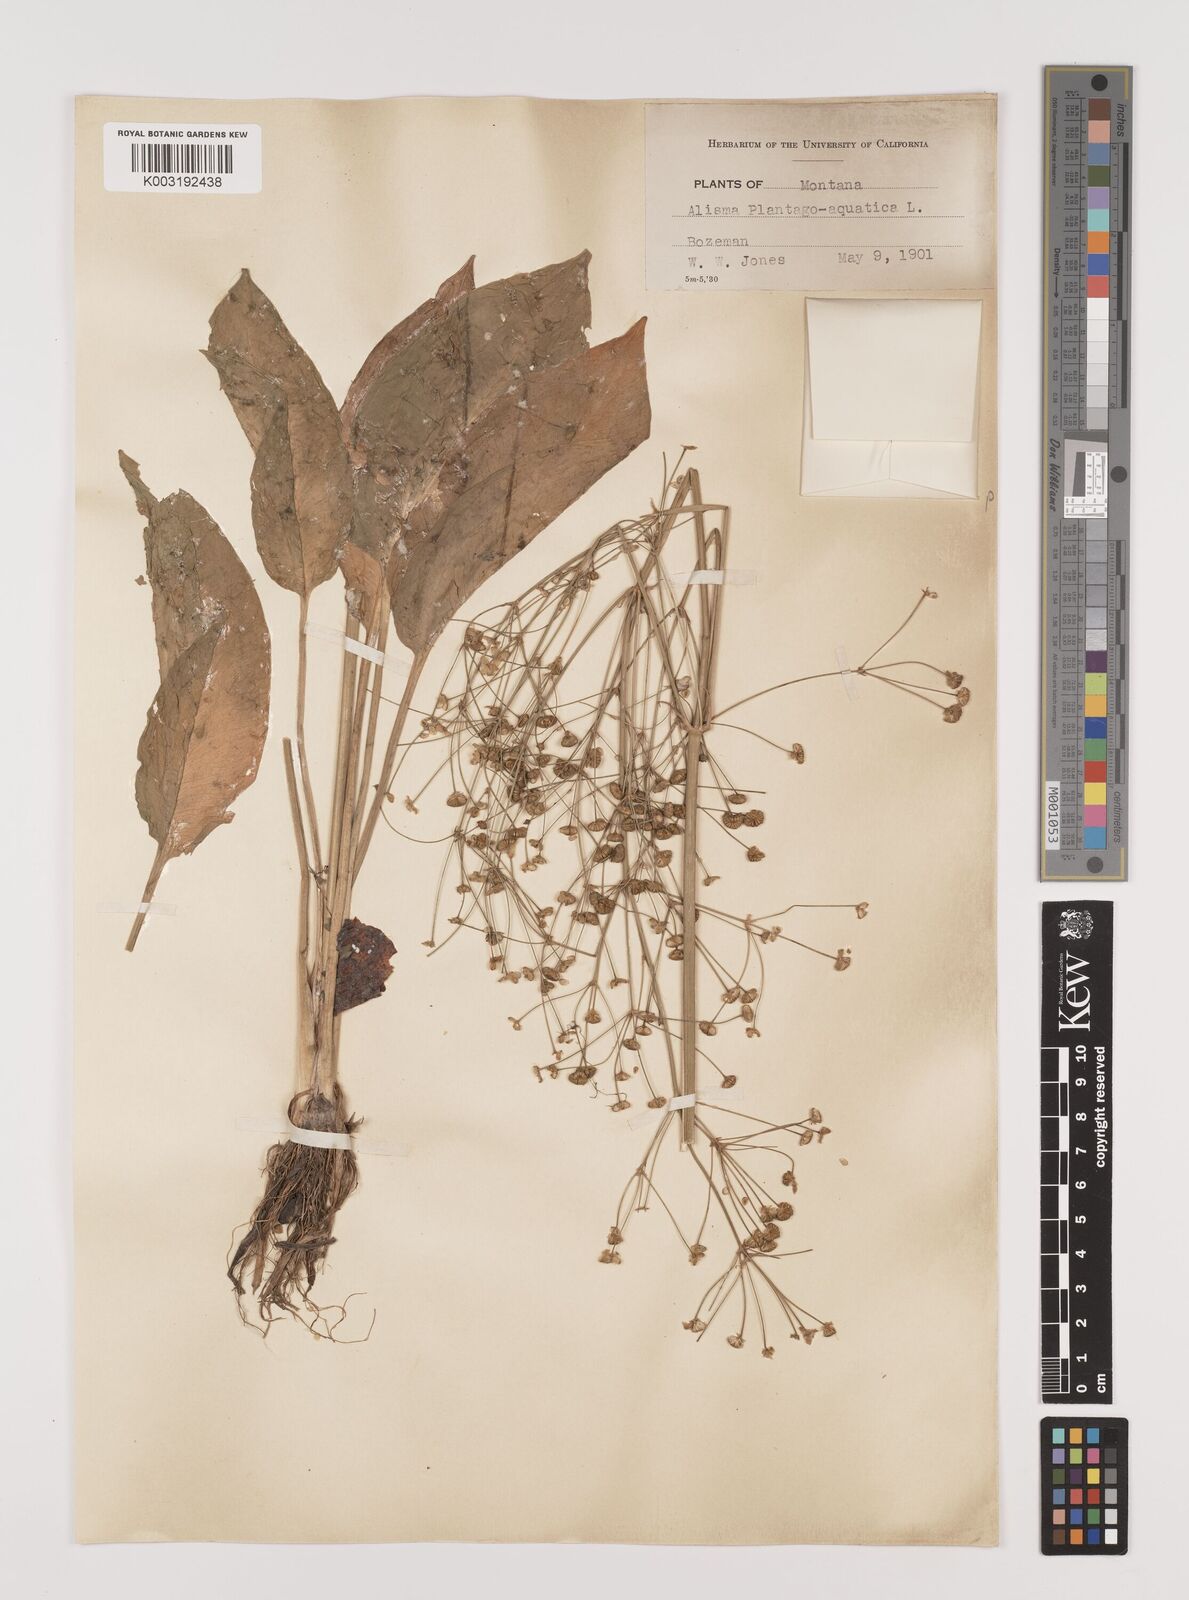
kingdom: Plantae
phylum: Tracheophyta
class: Liliopsida
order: Alismatales
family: Alismataceae
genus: Alisma
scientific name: Alisma triviale
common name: Northern water-plantain
